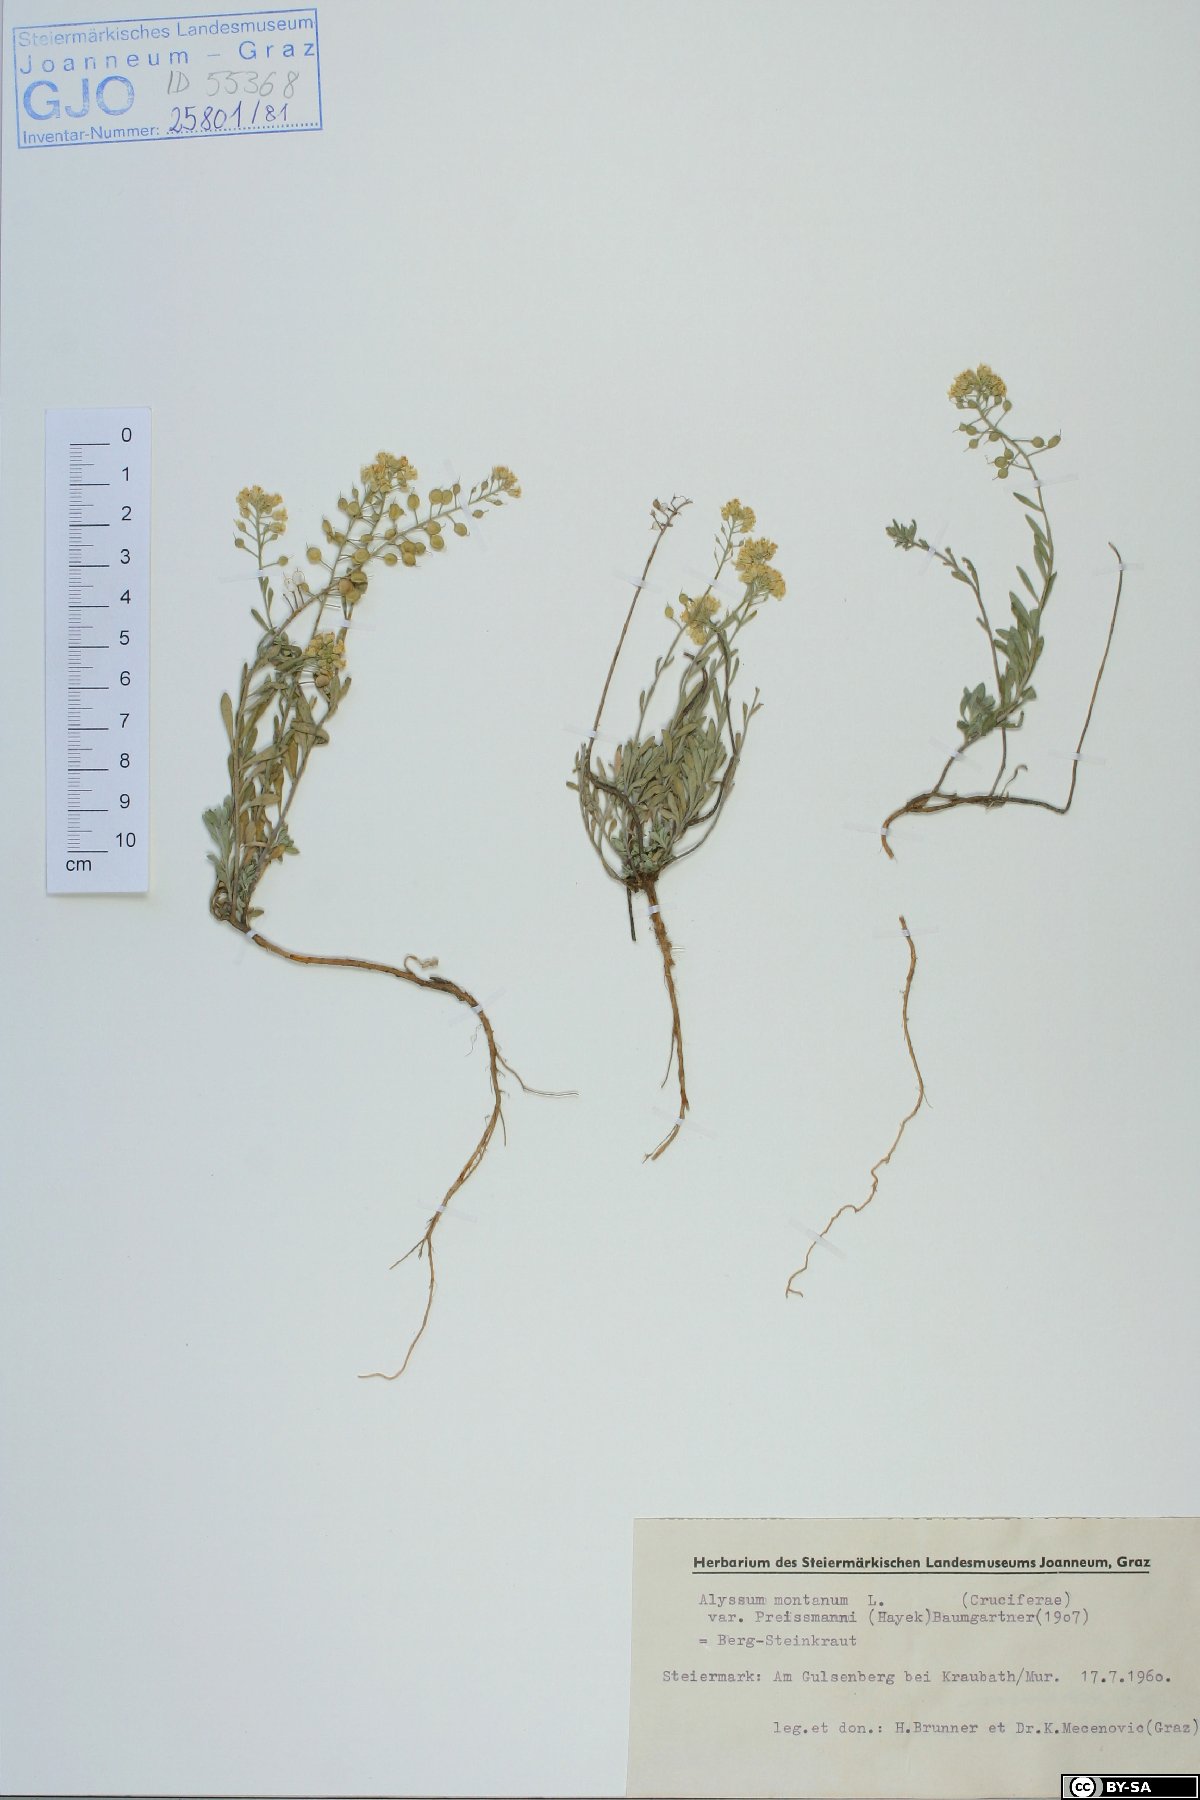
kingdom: Plantae
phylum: Tracheophyta
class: Magnoliopsida
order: Brassicales
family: Brassicaceae
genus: Alyssum
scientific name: Alyssum gmelinii
